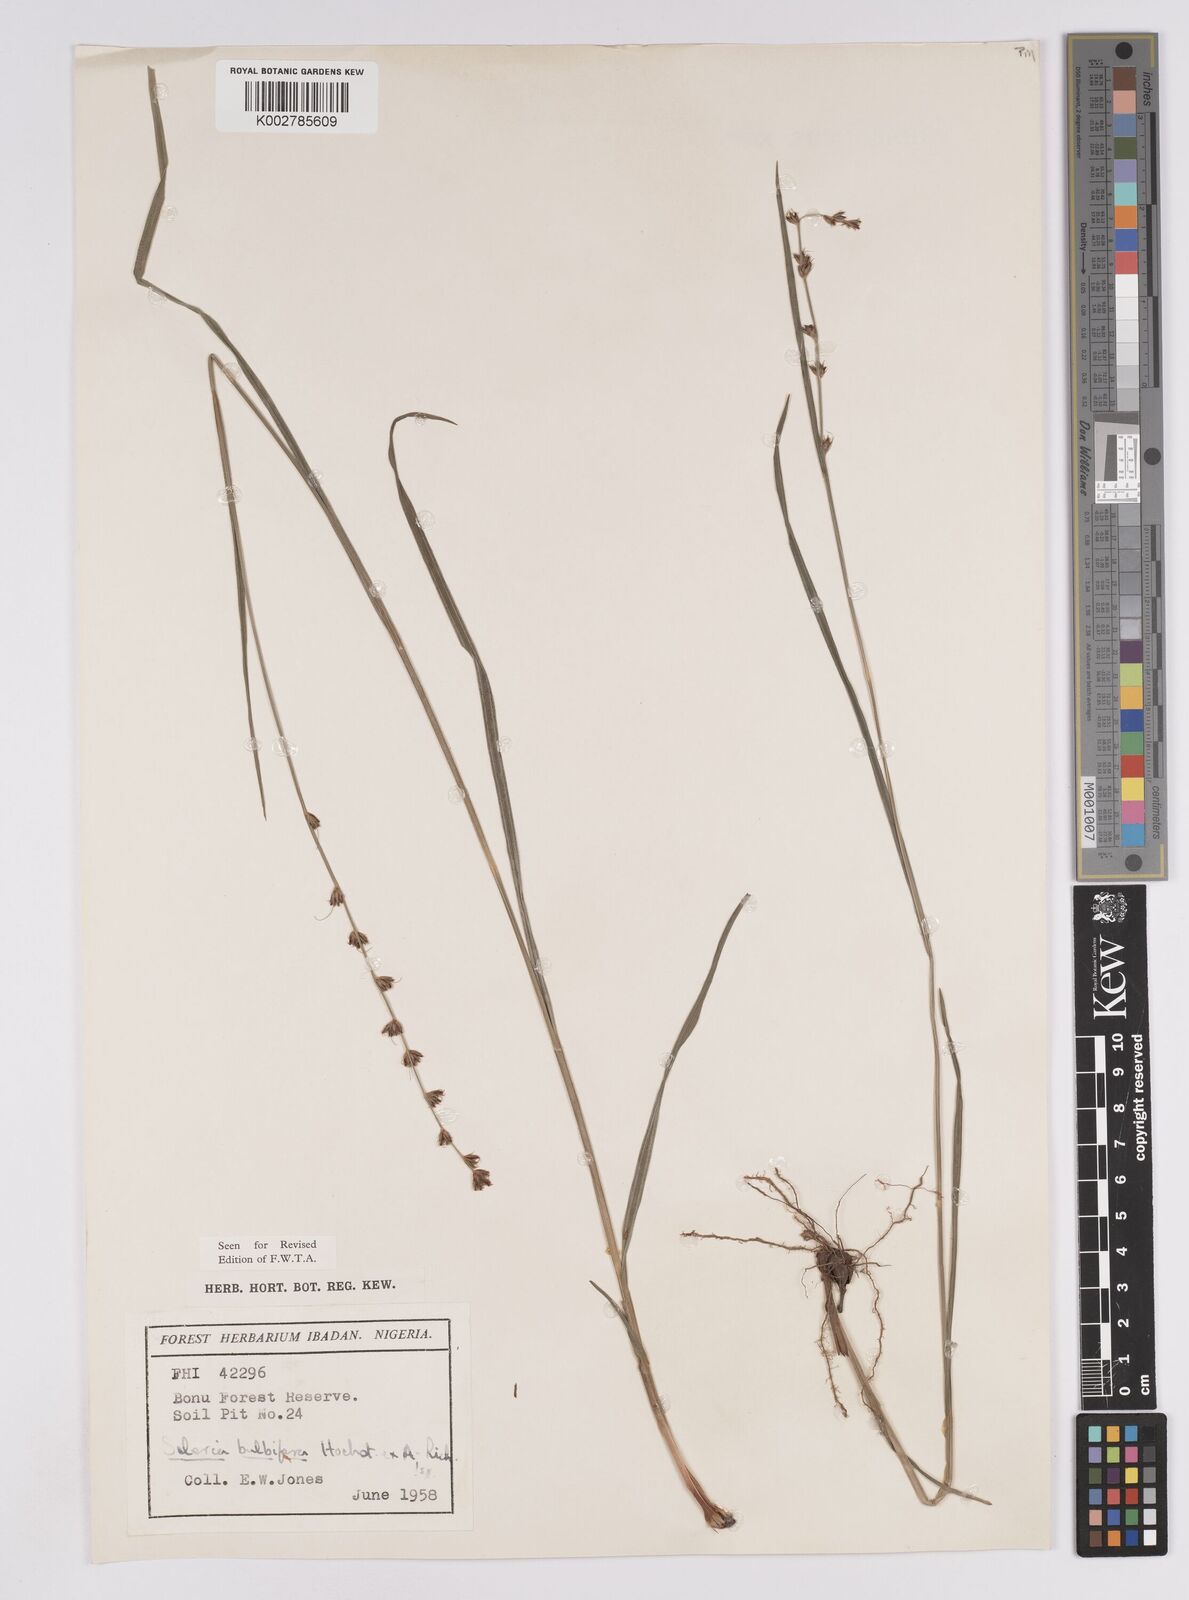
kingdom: Plantae
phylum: Tracheophyta
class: Liliopsida
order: Poales
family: Cyperaceae
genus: Scleria
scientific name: Scleria bulbifera
